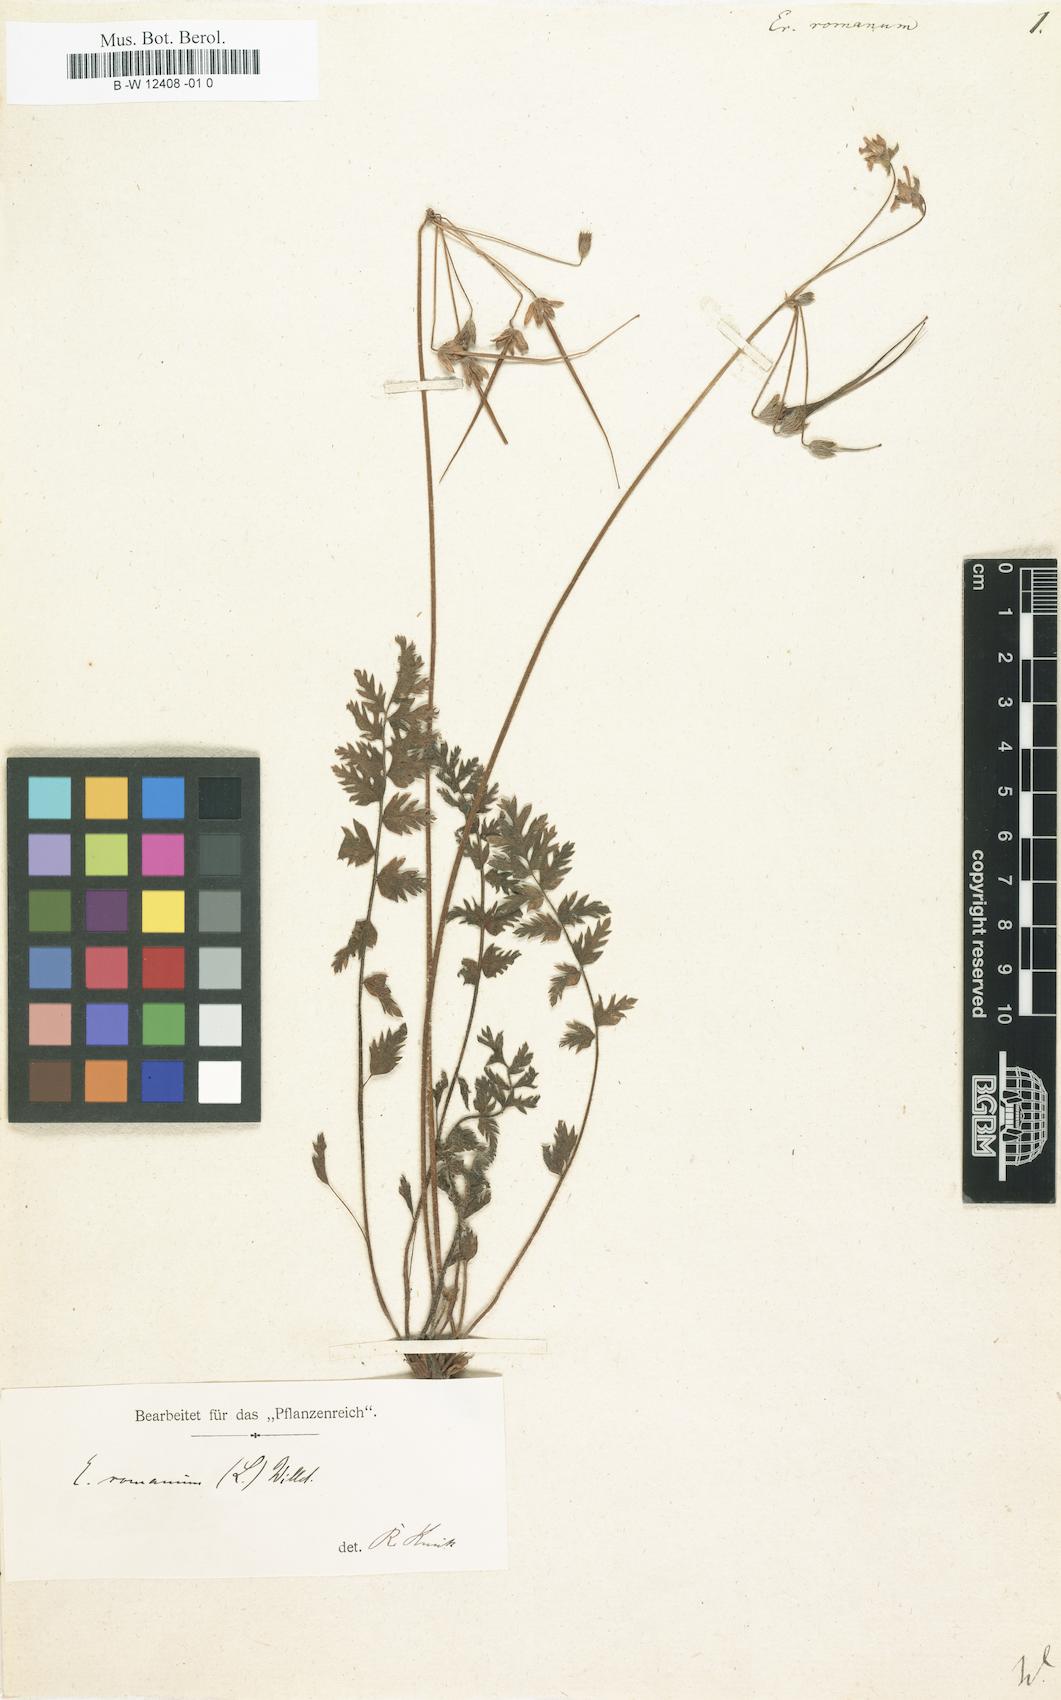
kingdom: Plantae
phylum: Tracheophyta
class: Magnoliopsida
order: Geraniales
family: Geraniaceae
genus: Erodium
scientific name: Erodium romanum
